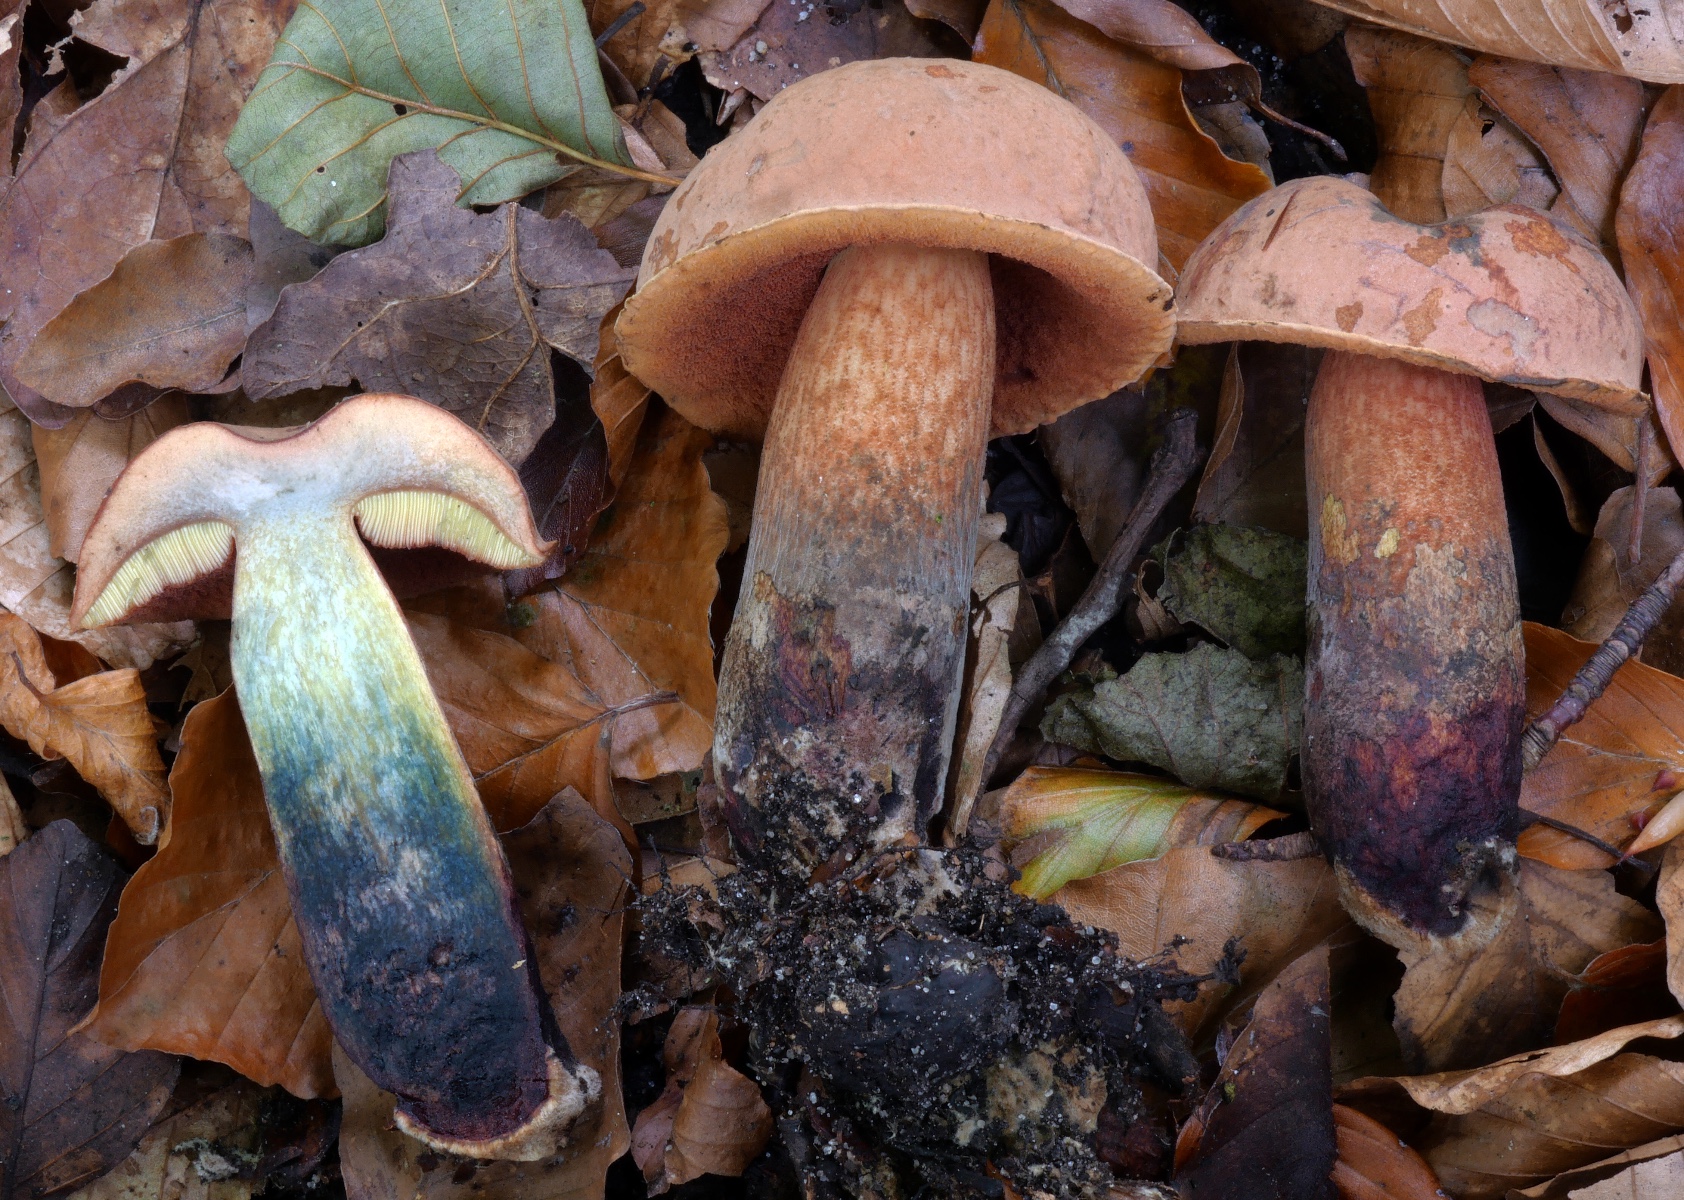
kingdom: Fungi
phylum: Basidiomycota
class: Agaricomycetes
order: Boletales
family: Boletaceae
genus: Suillellus
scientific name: Suillellus mendax
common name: joker-indigorørhat
